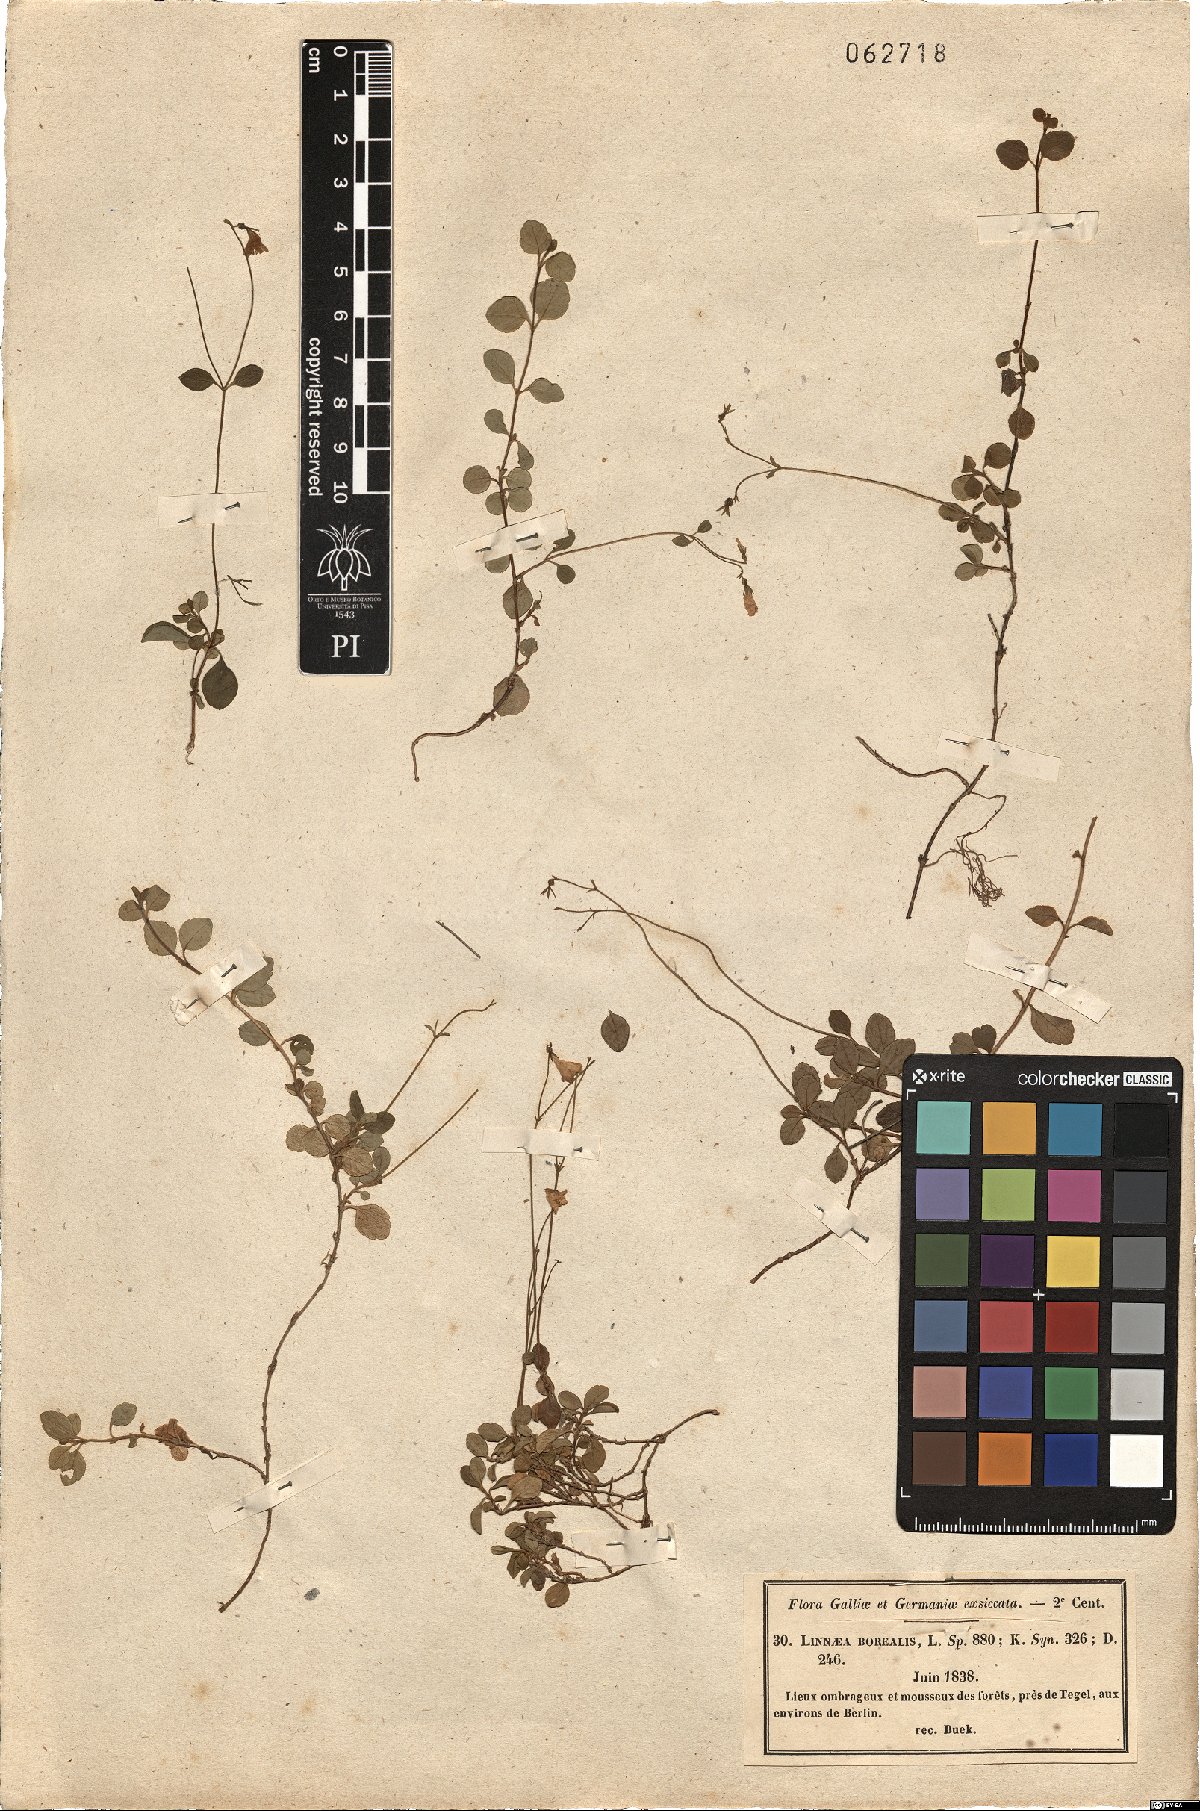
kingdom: Plantae
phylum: Tracheophyta
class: Magnoliopsida
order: Dipsacales
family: Caprifoliaceae
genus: Linnaea
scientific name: Linnaea borealis
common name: Twinflower
